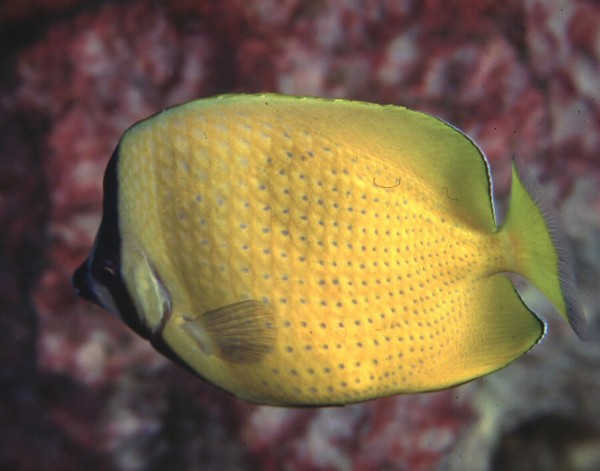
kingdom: Animalia
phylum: Chordata
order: Perciformes
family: Chaetodontidae
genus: Chaetodon
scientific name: Chaetodon kleinii
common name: Klein's butterflyfish
